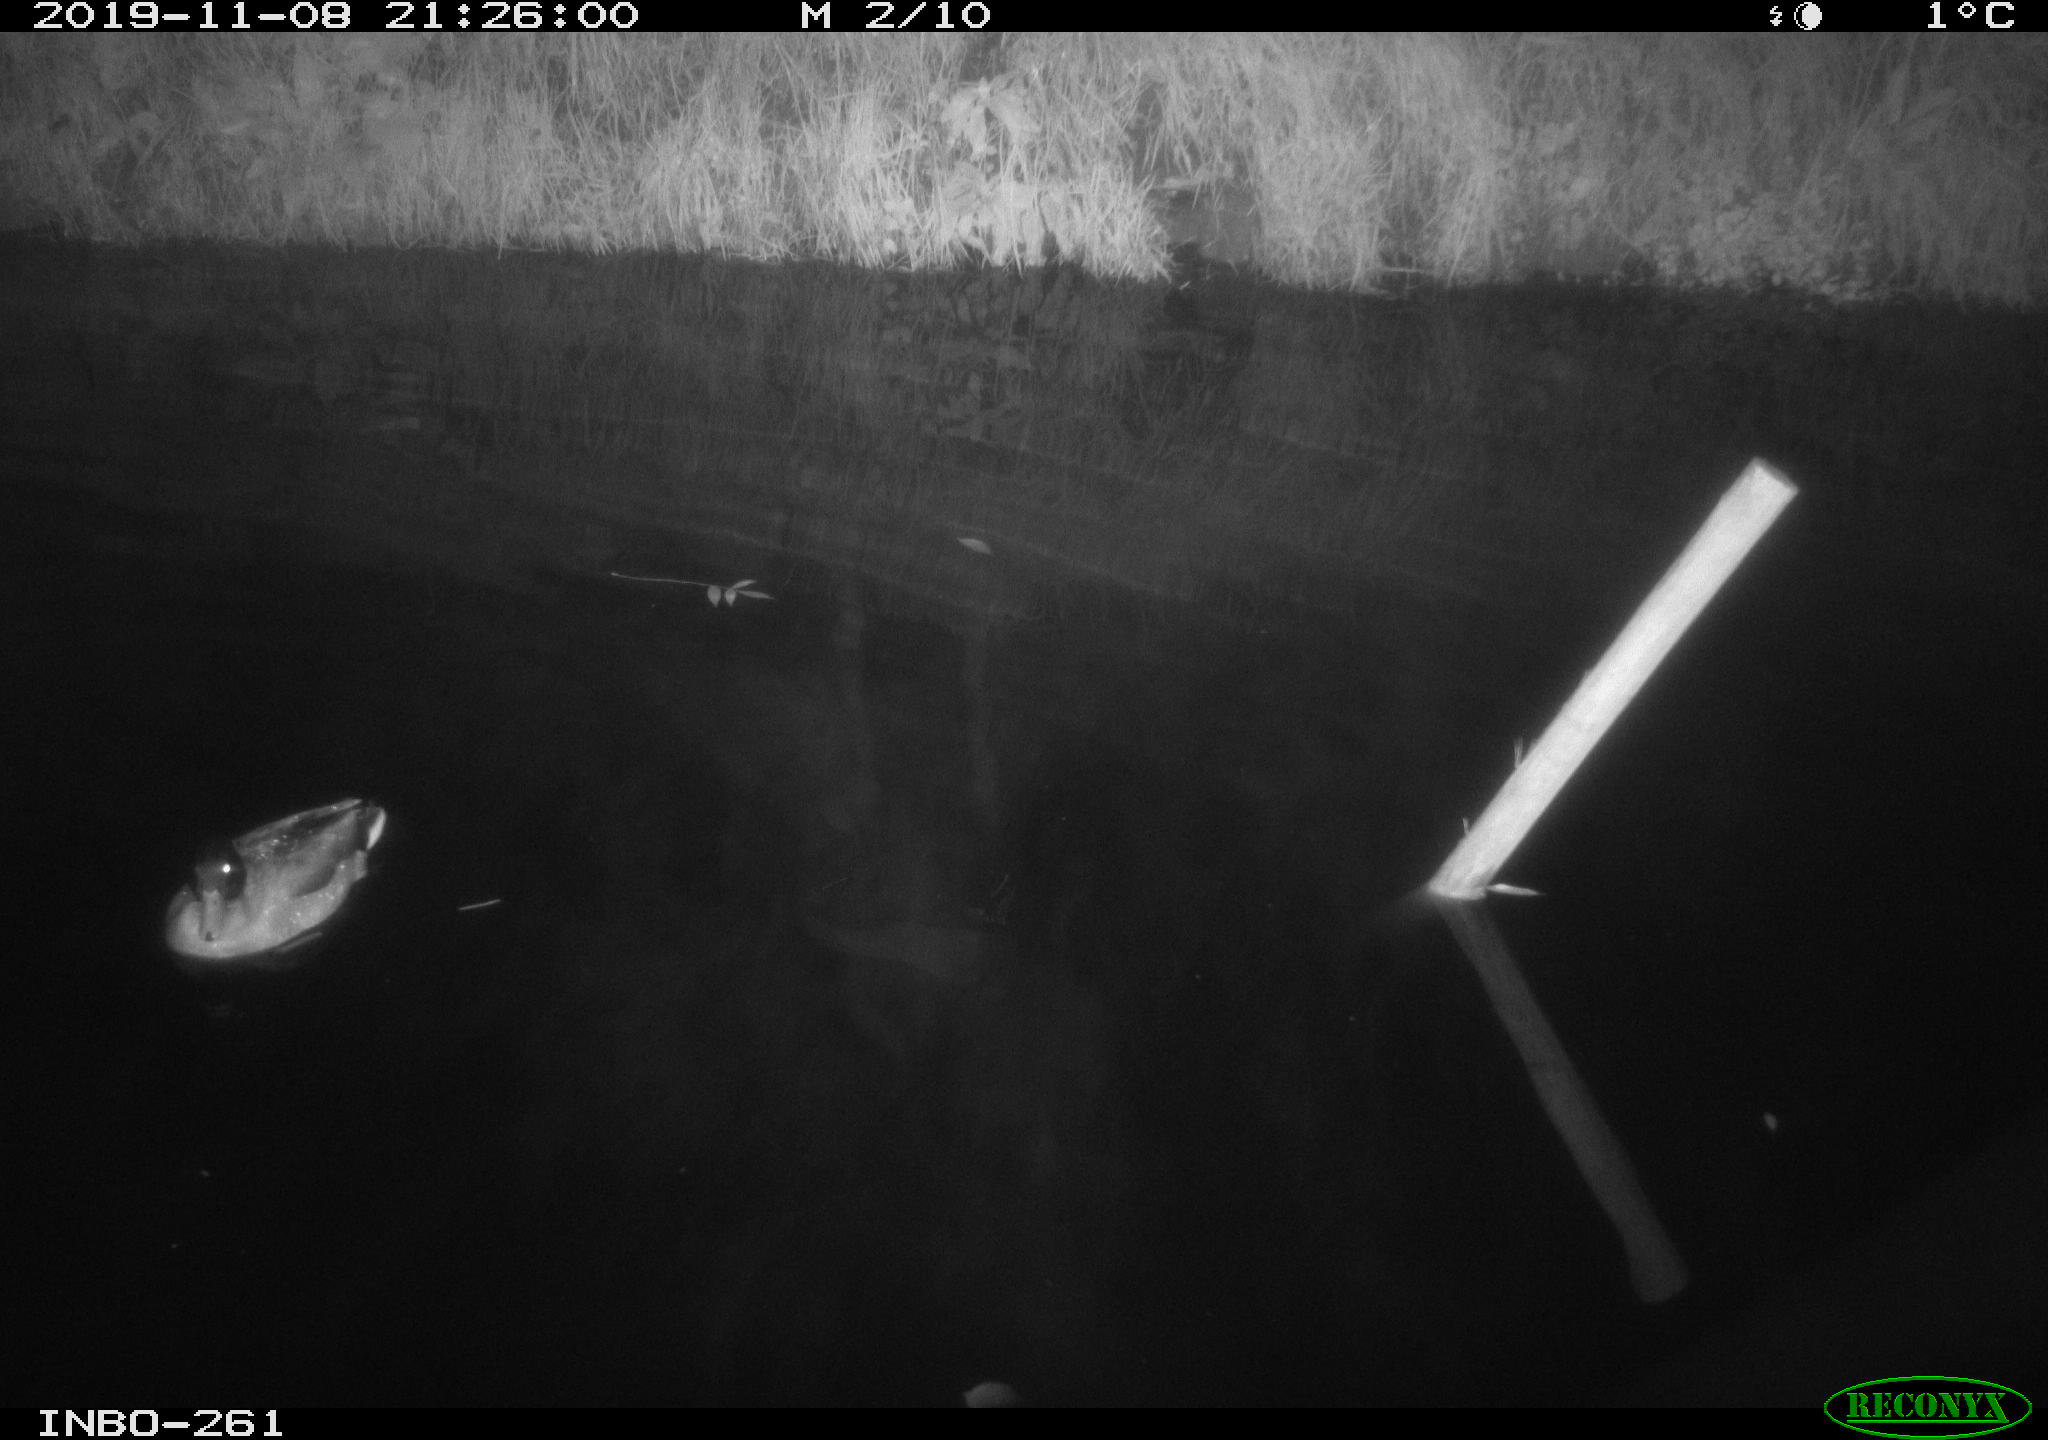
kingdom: Animalia
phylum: Chordata
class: Aves
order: Anseriformes
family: Anatidae
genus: Anas
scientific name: Anas platyrhynchos
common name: Mallard
